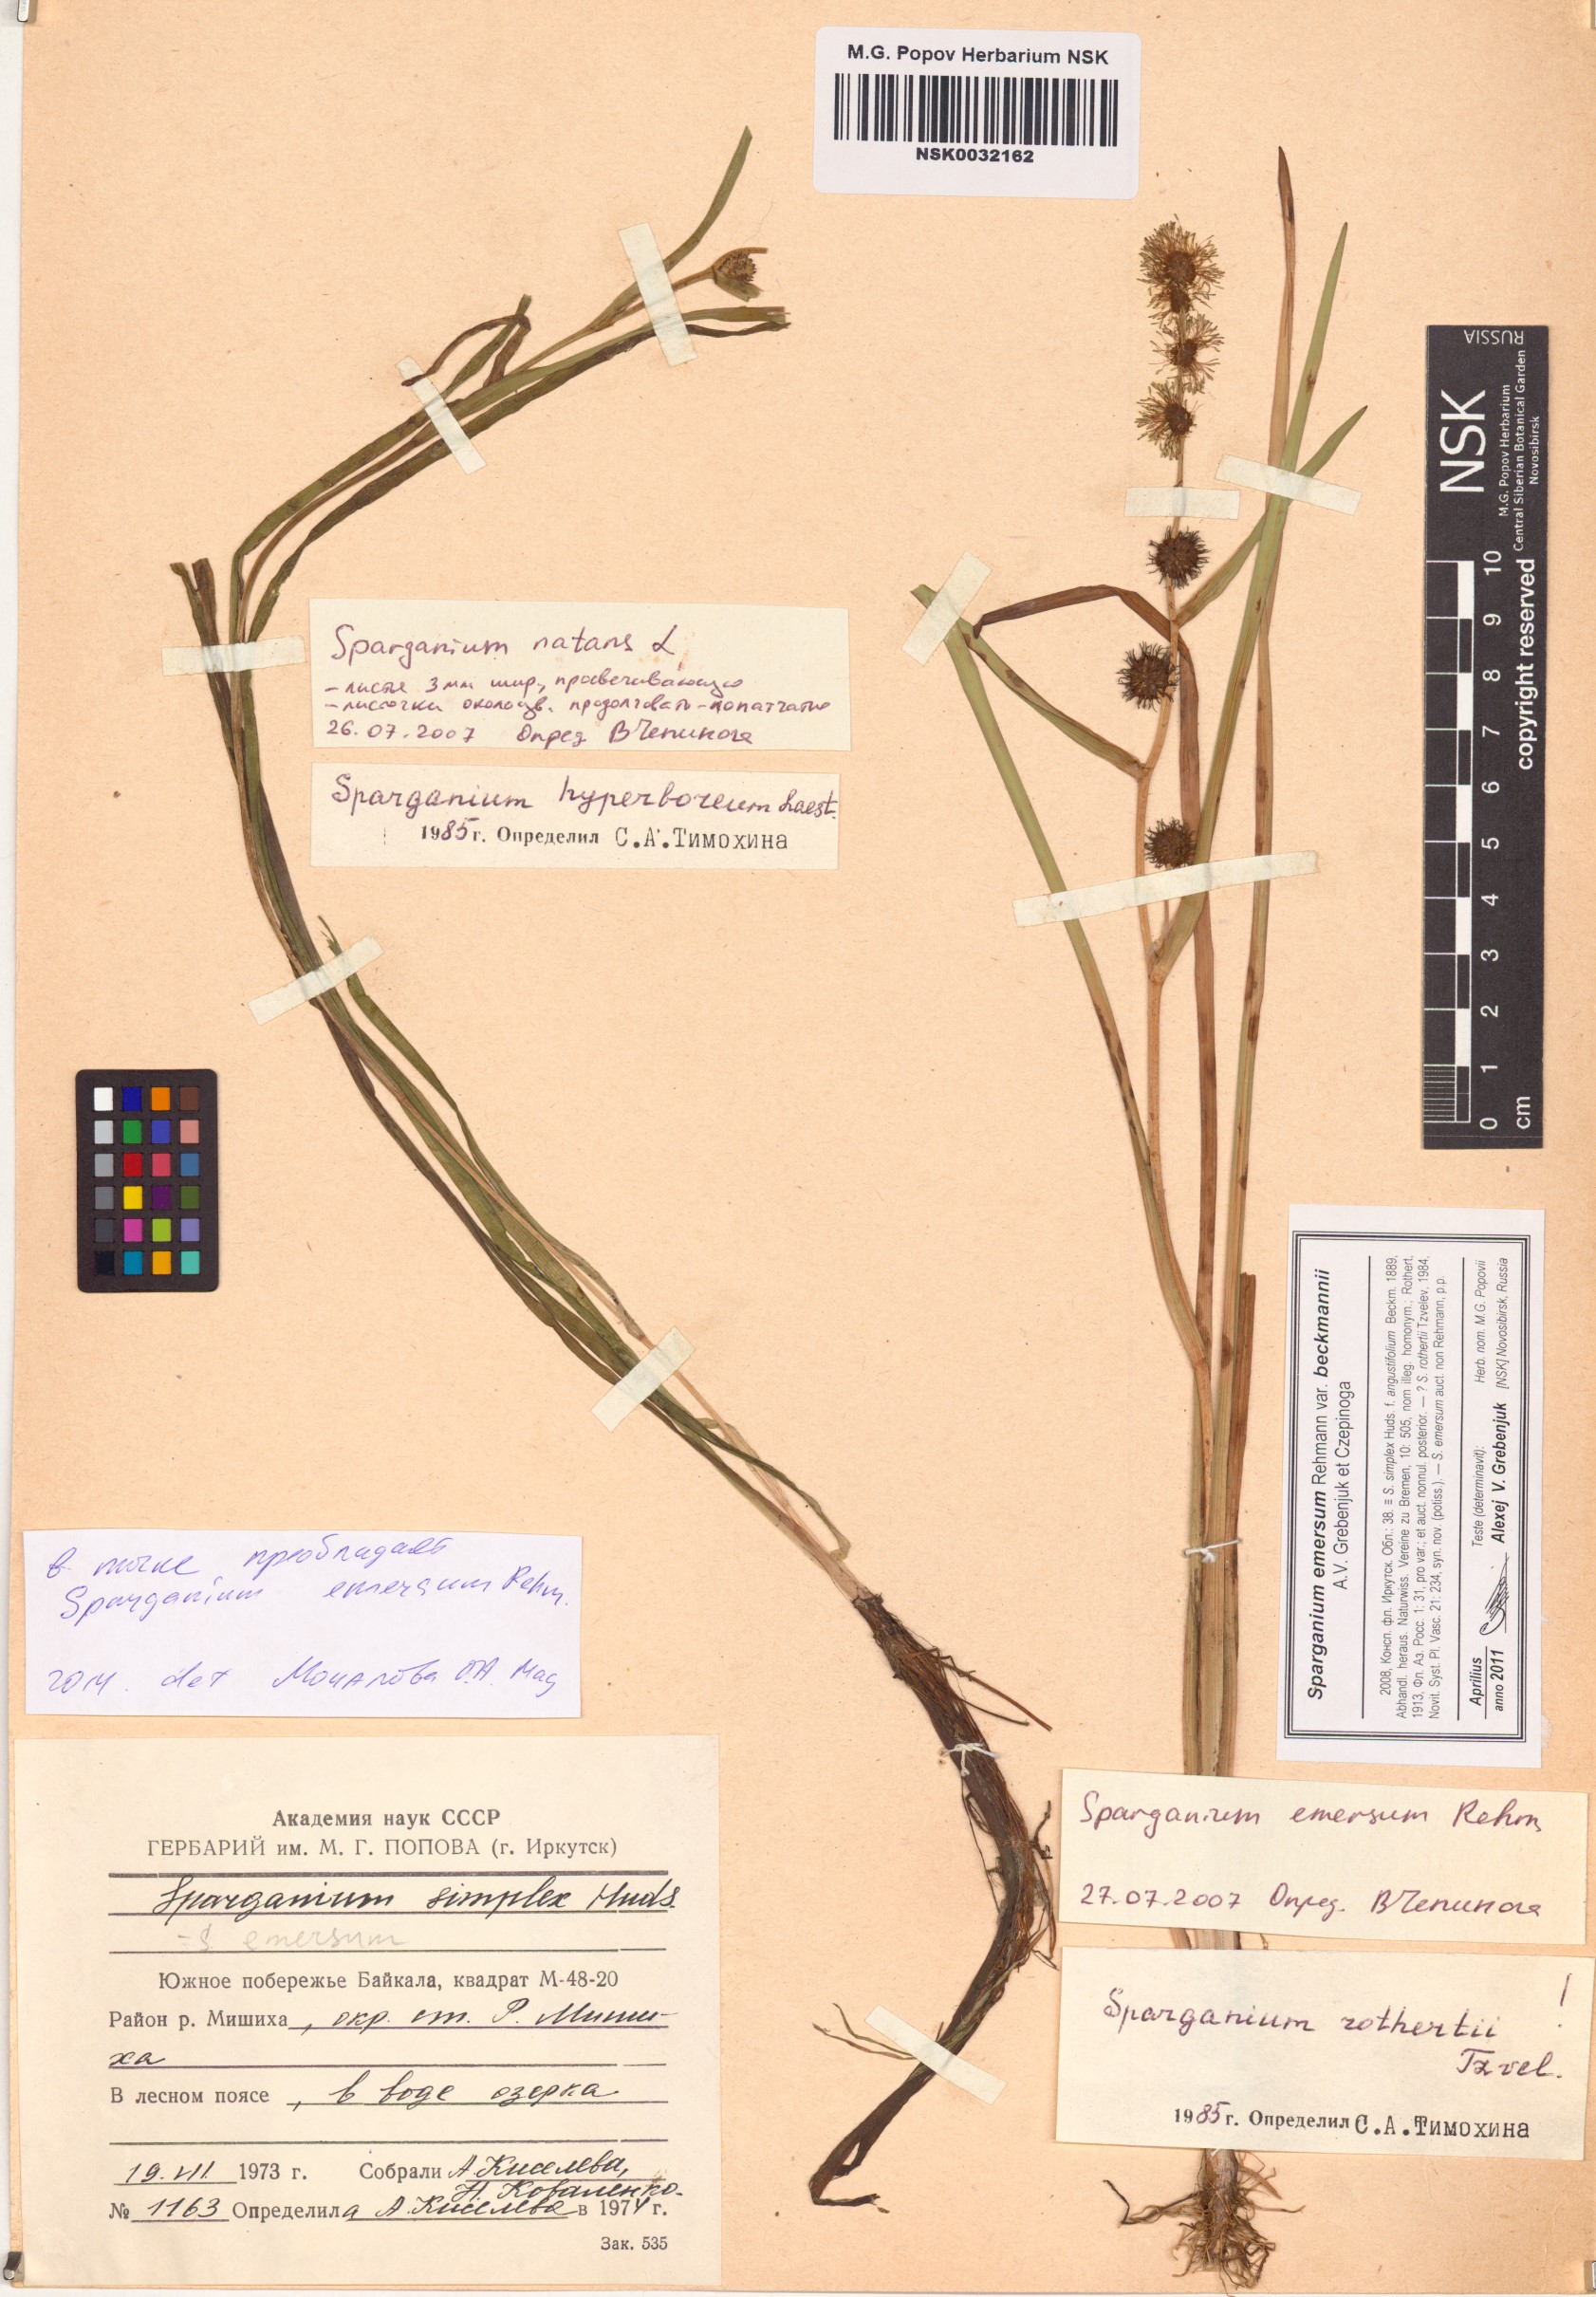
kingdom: Plantae
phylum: Tracheophyta
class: Liliopsida
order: Poales
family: Typhaceae
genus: Sparganium
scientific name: Sparganium emersum
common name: Unbranched bur-reed
